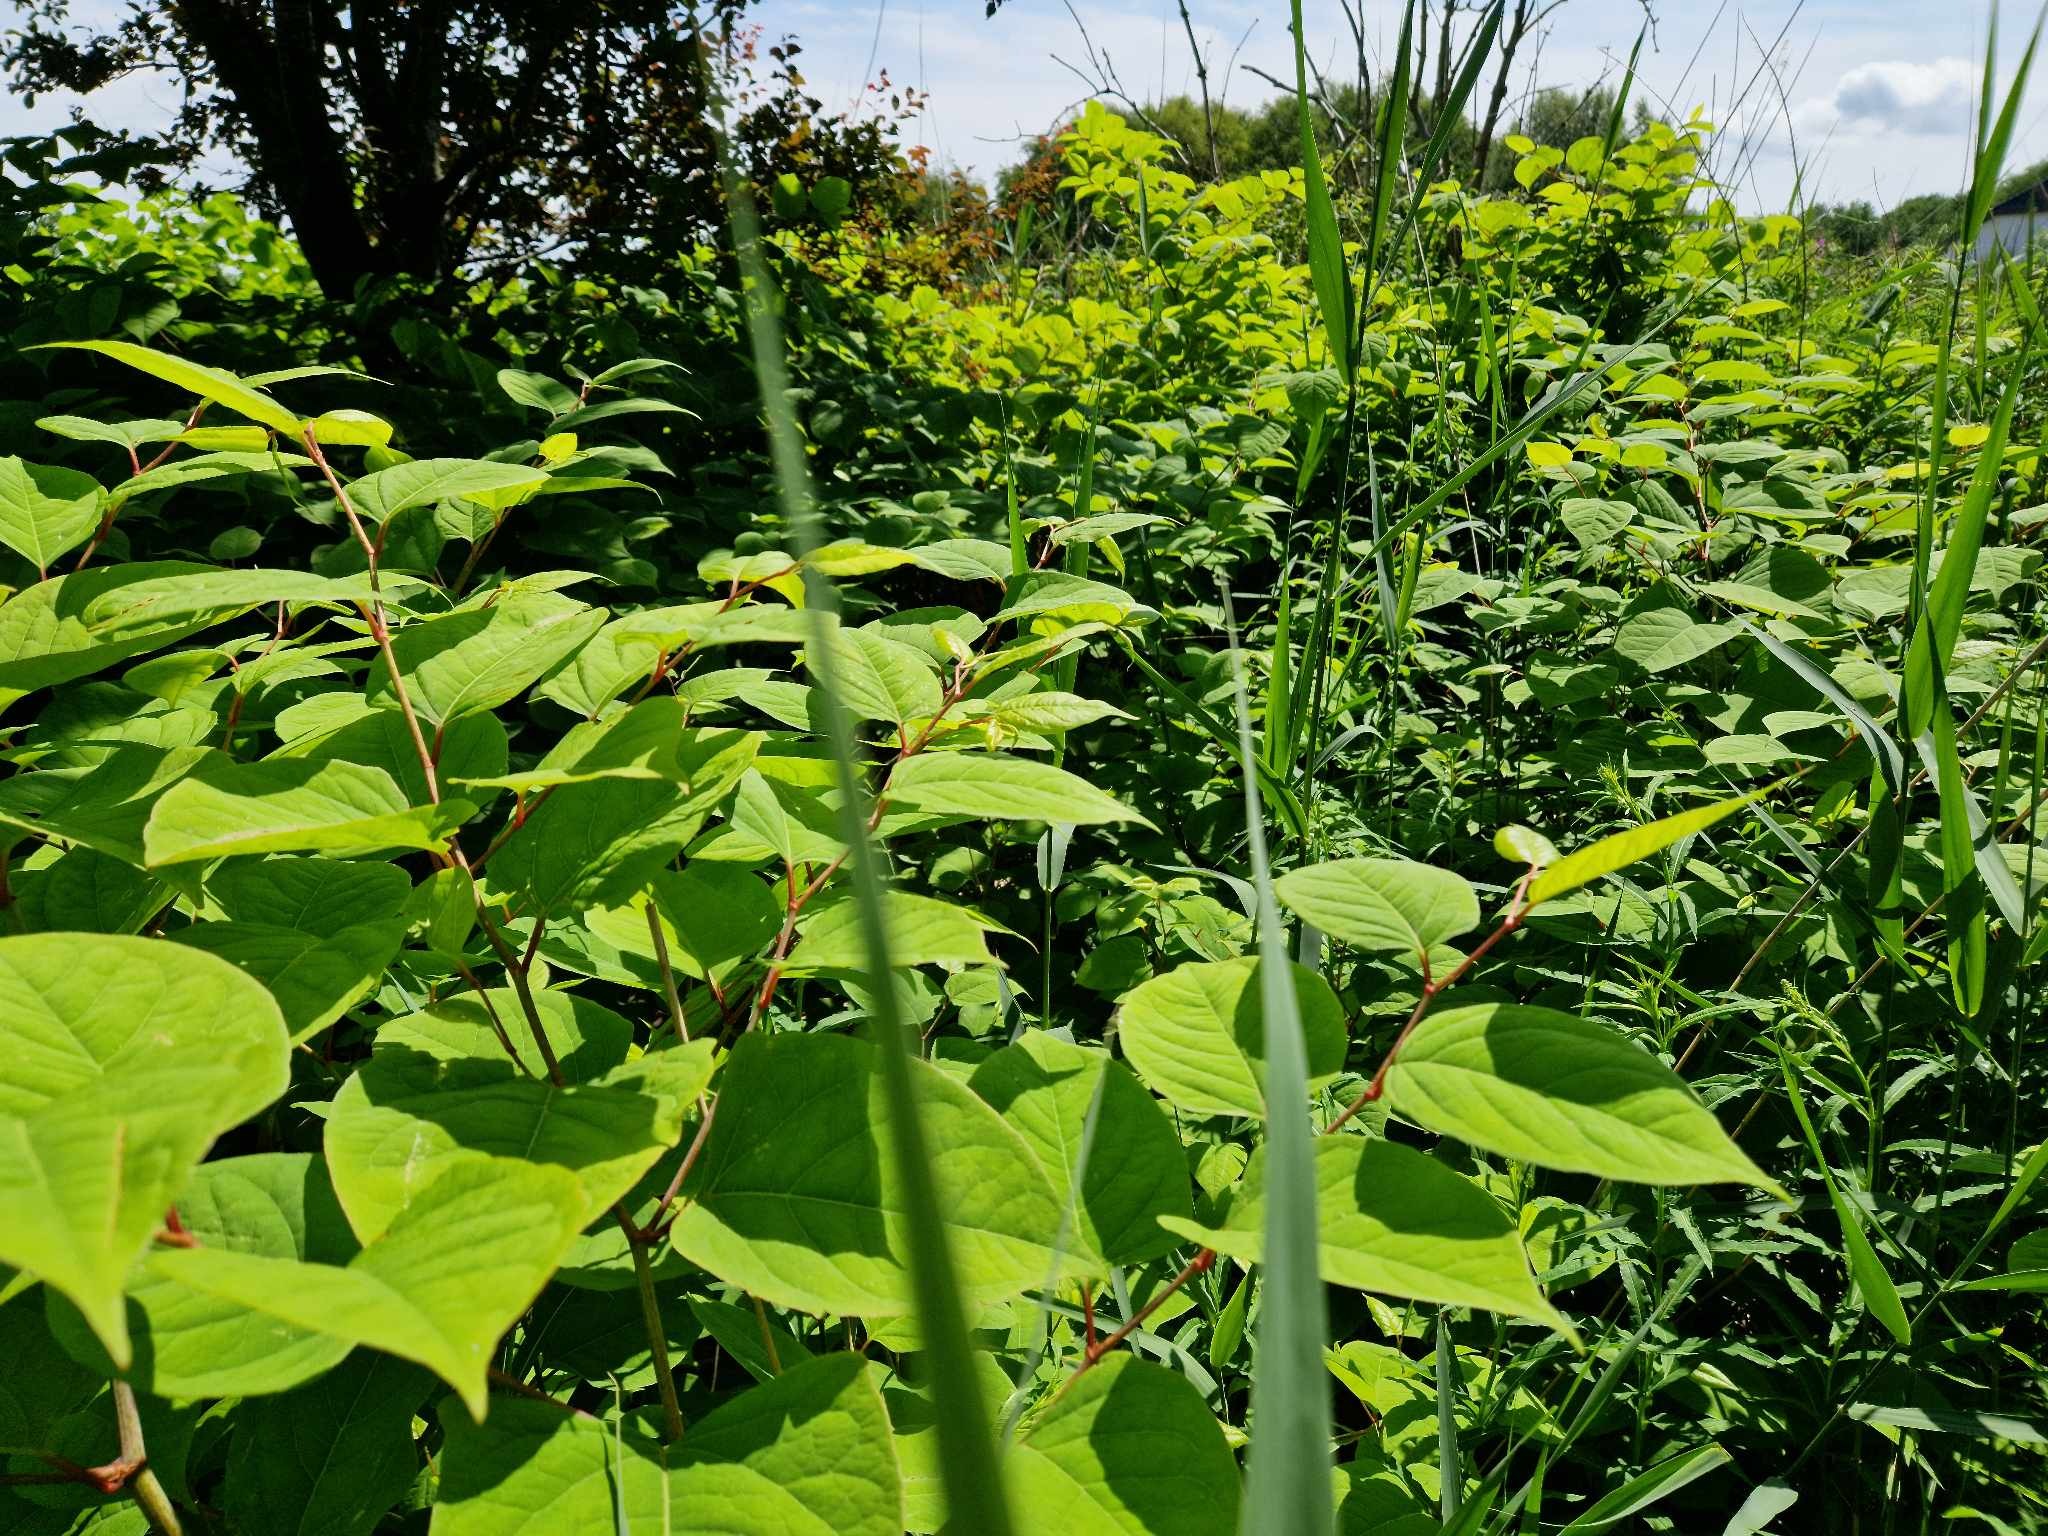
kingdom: Plantae
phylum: Tracheophyta
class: Magnoliopsida
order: Caryophyllales
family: Polygonaceae
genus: Reynoutria
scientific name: Reynoutria japonica
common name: Japan-pileurt
